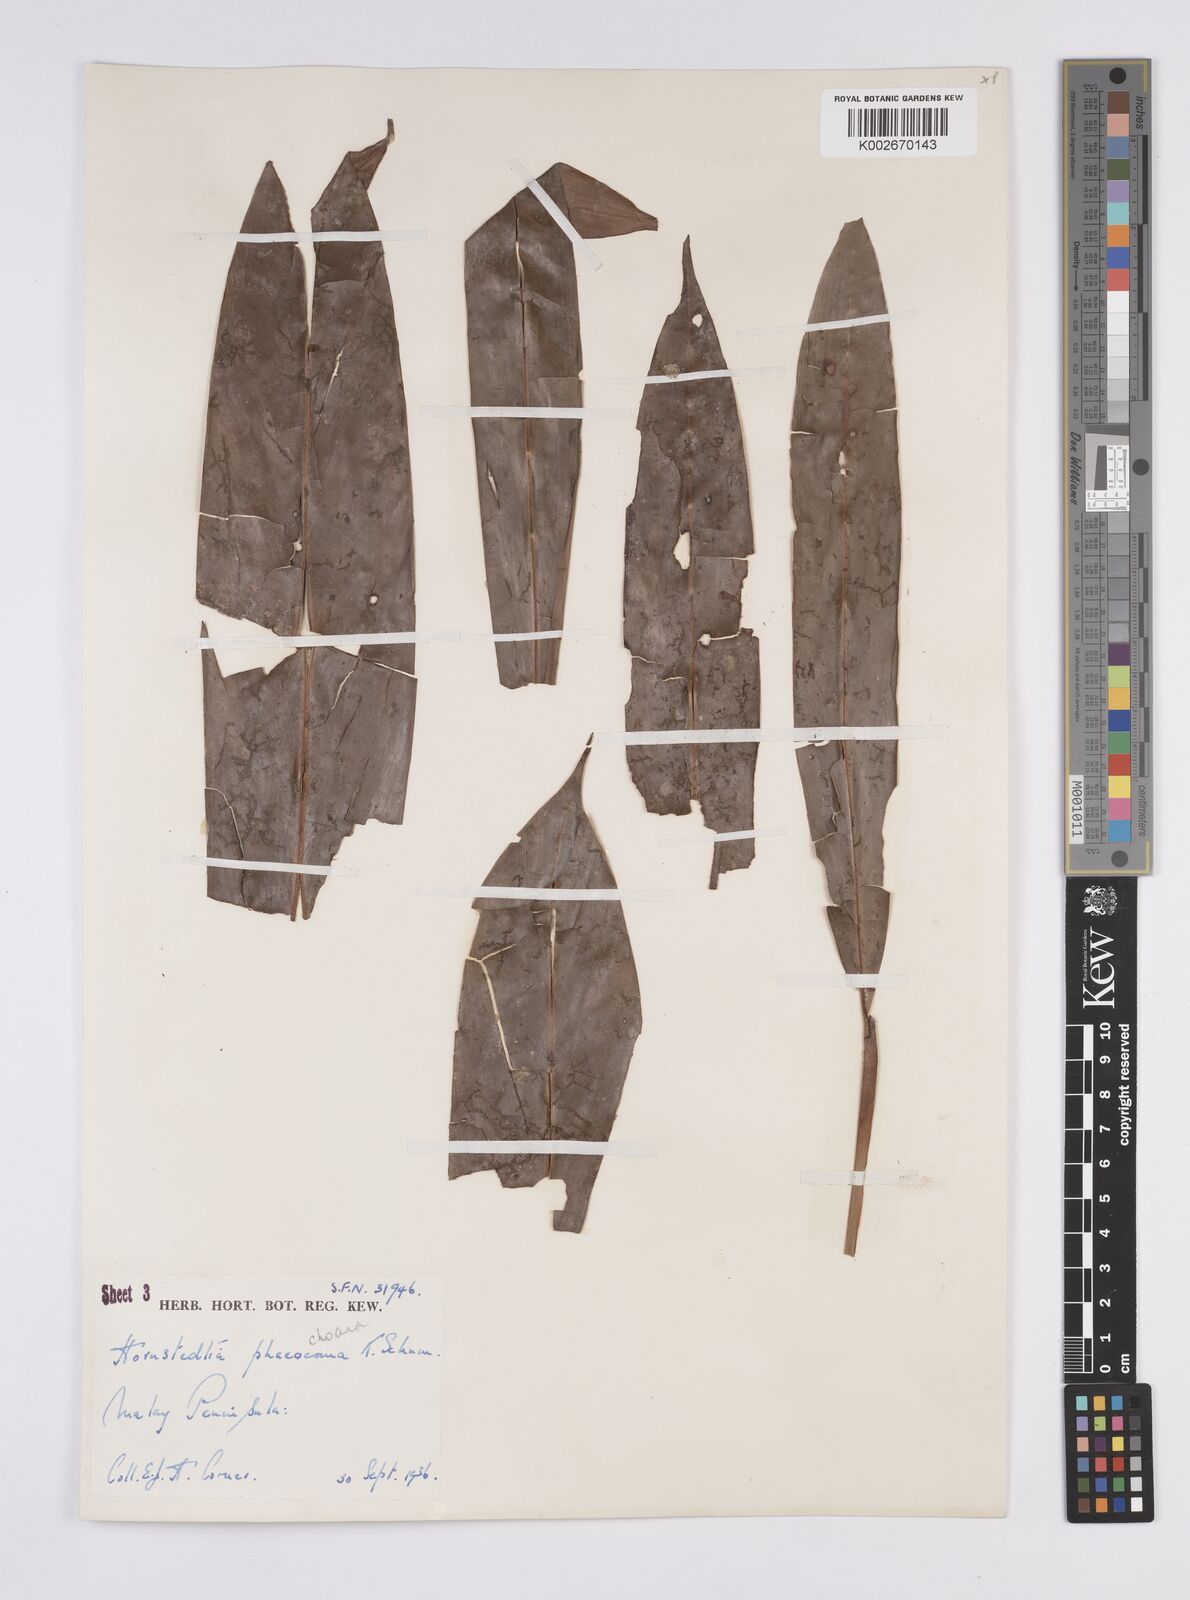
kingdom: Plantae
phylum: Tracheophyta
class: Liliopsida
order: Zingiberales
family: Zingiberaceae
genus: Hornstedtia
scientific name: Hornstedtia phaeochoana
